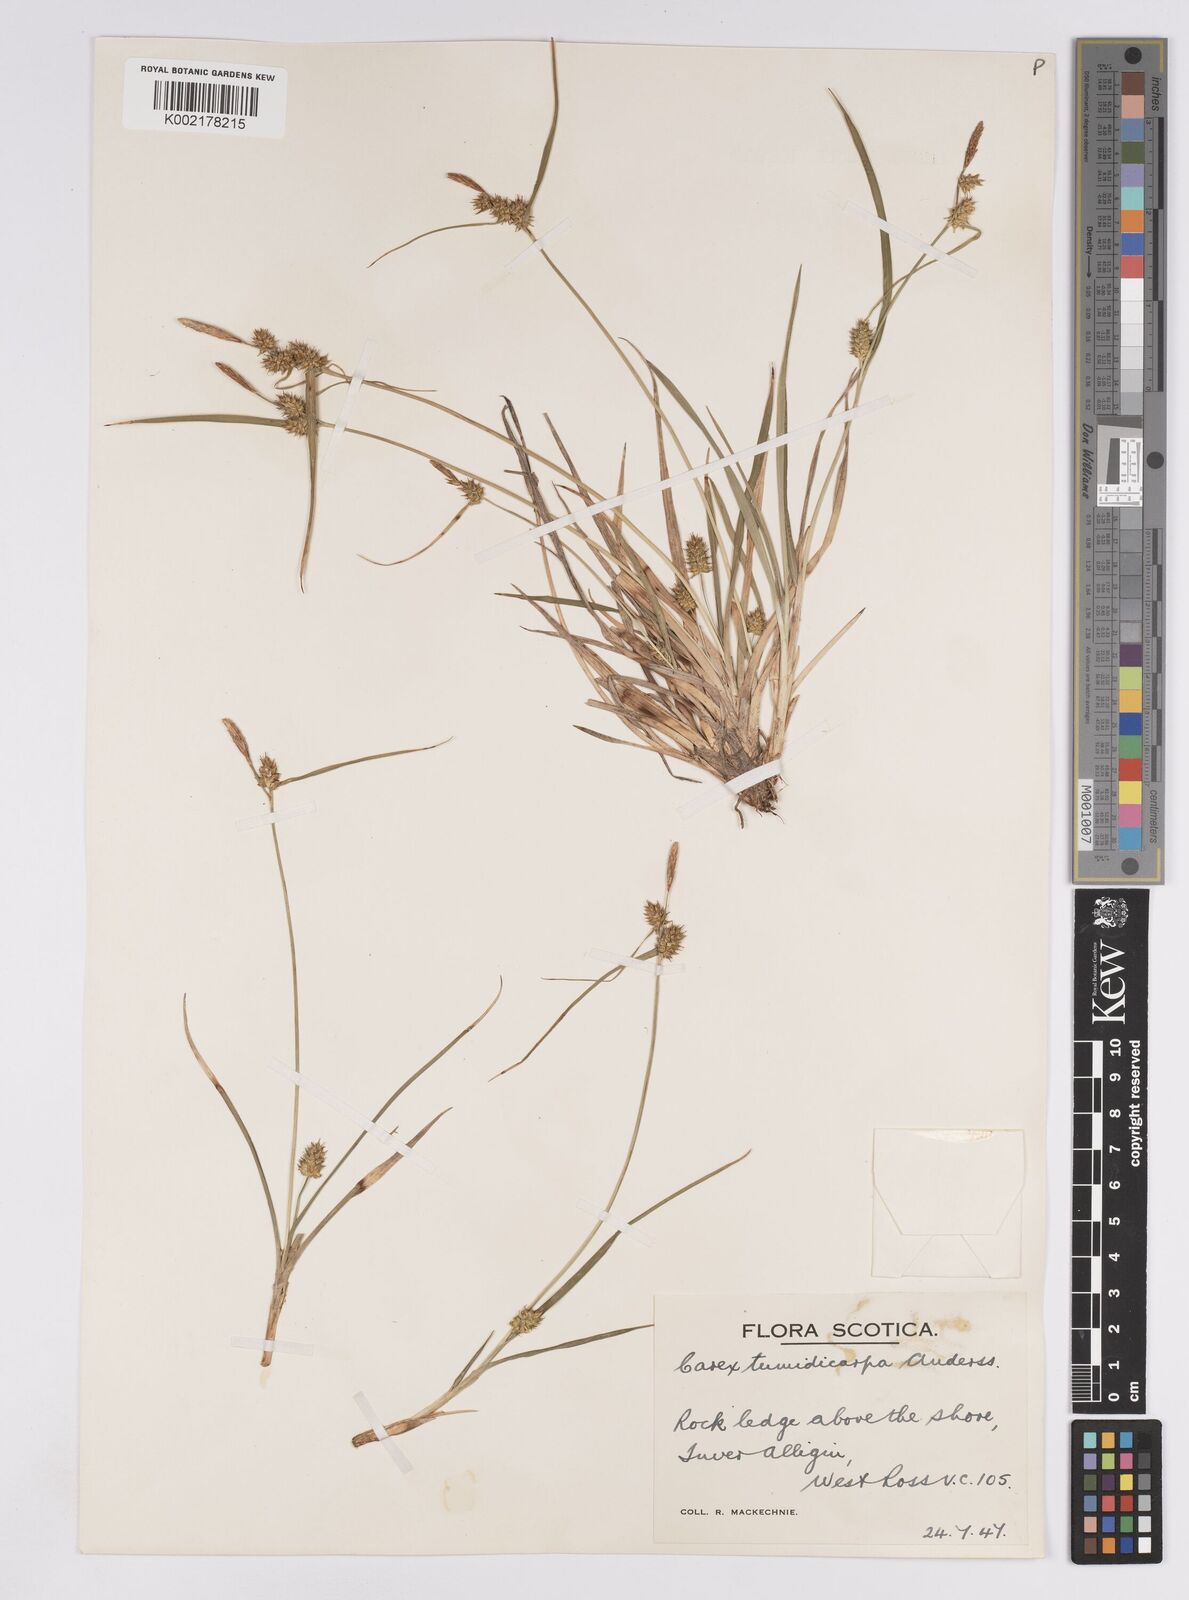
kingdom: Plantae
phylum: Tracheophyta
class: Liliopsida
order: Poales
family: Cyperaceae
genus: Carex
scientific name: Carex demissa
